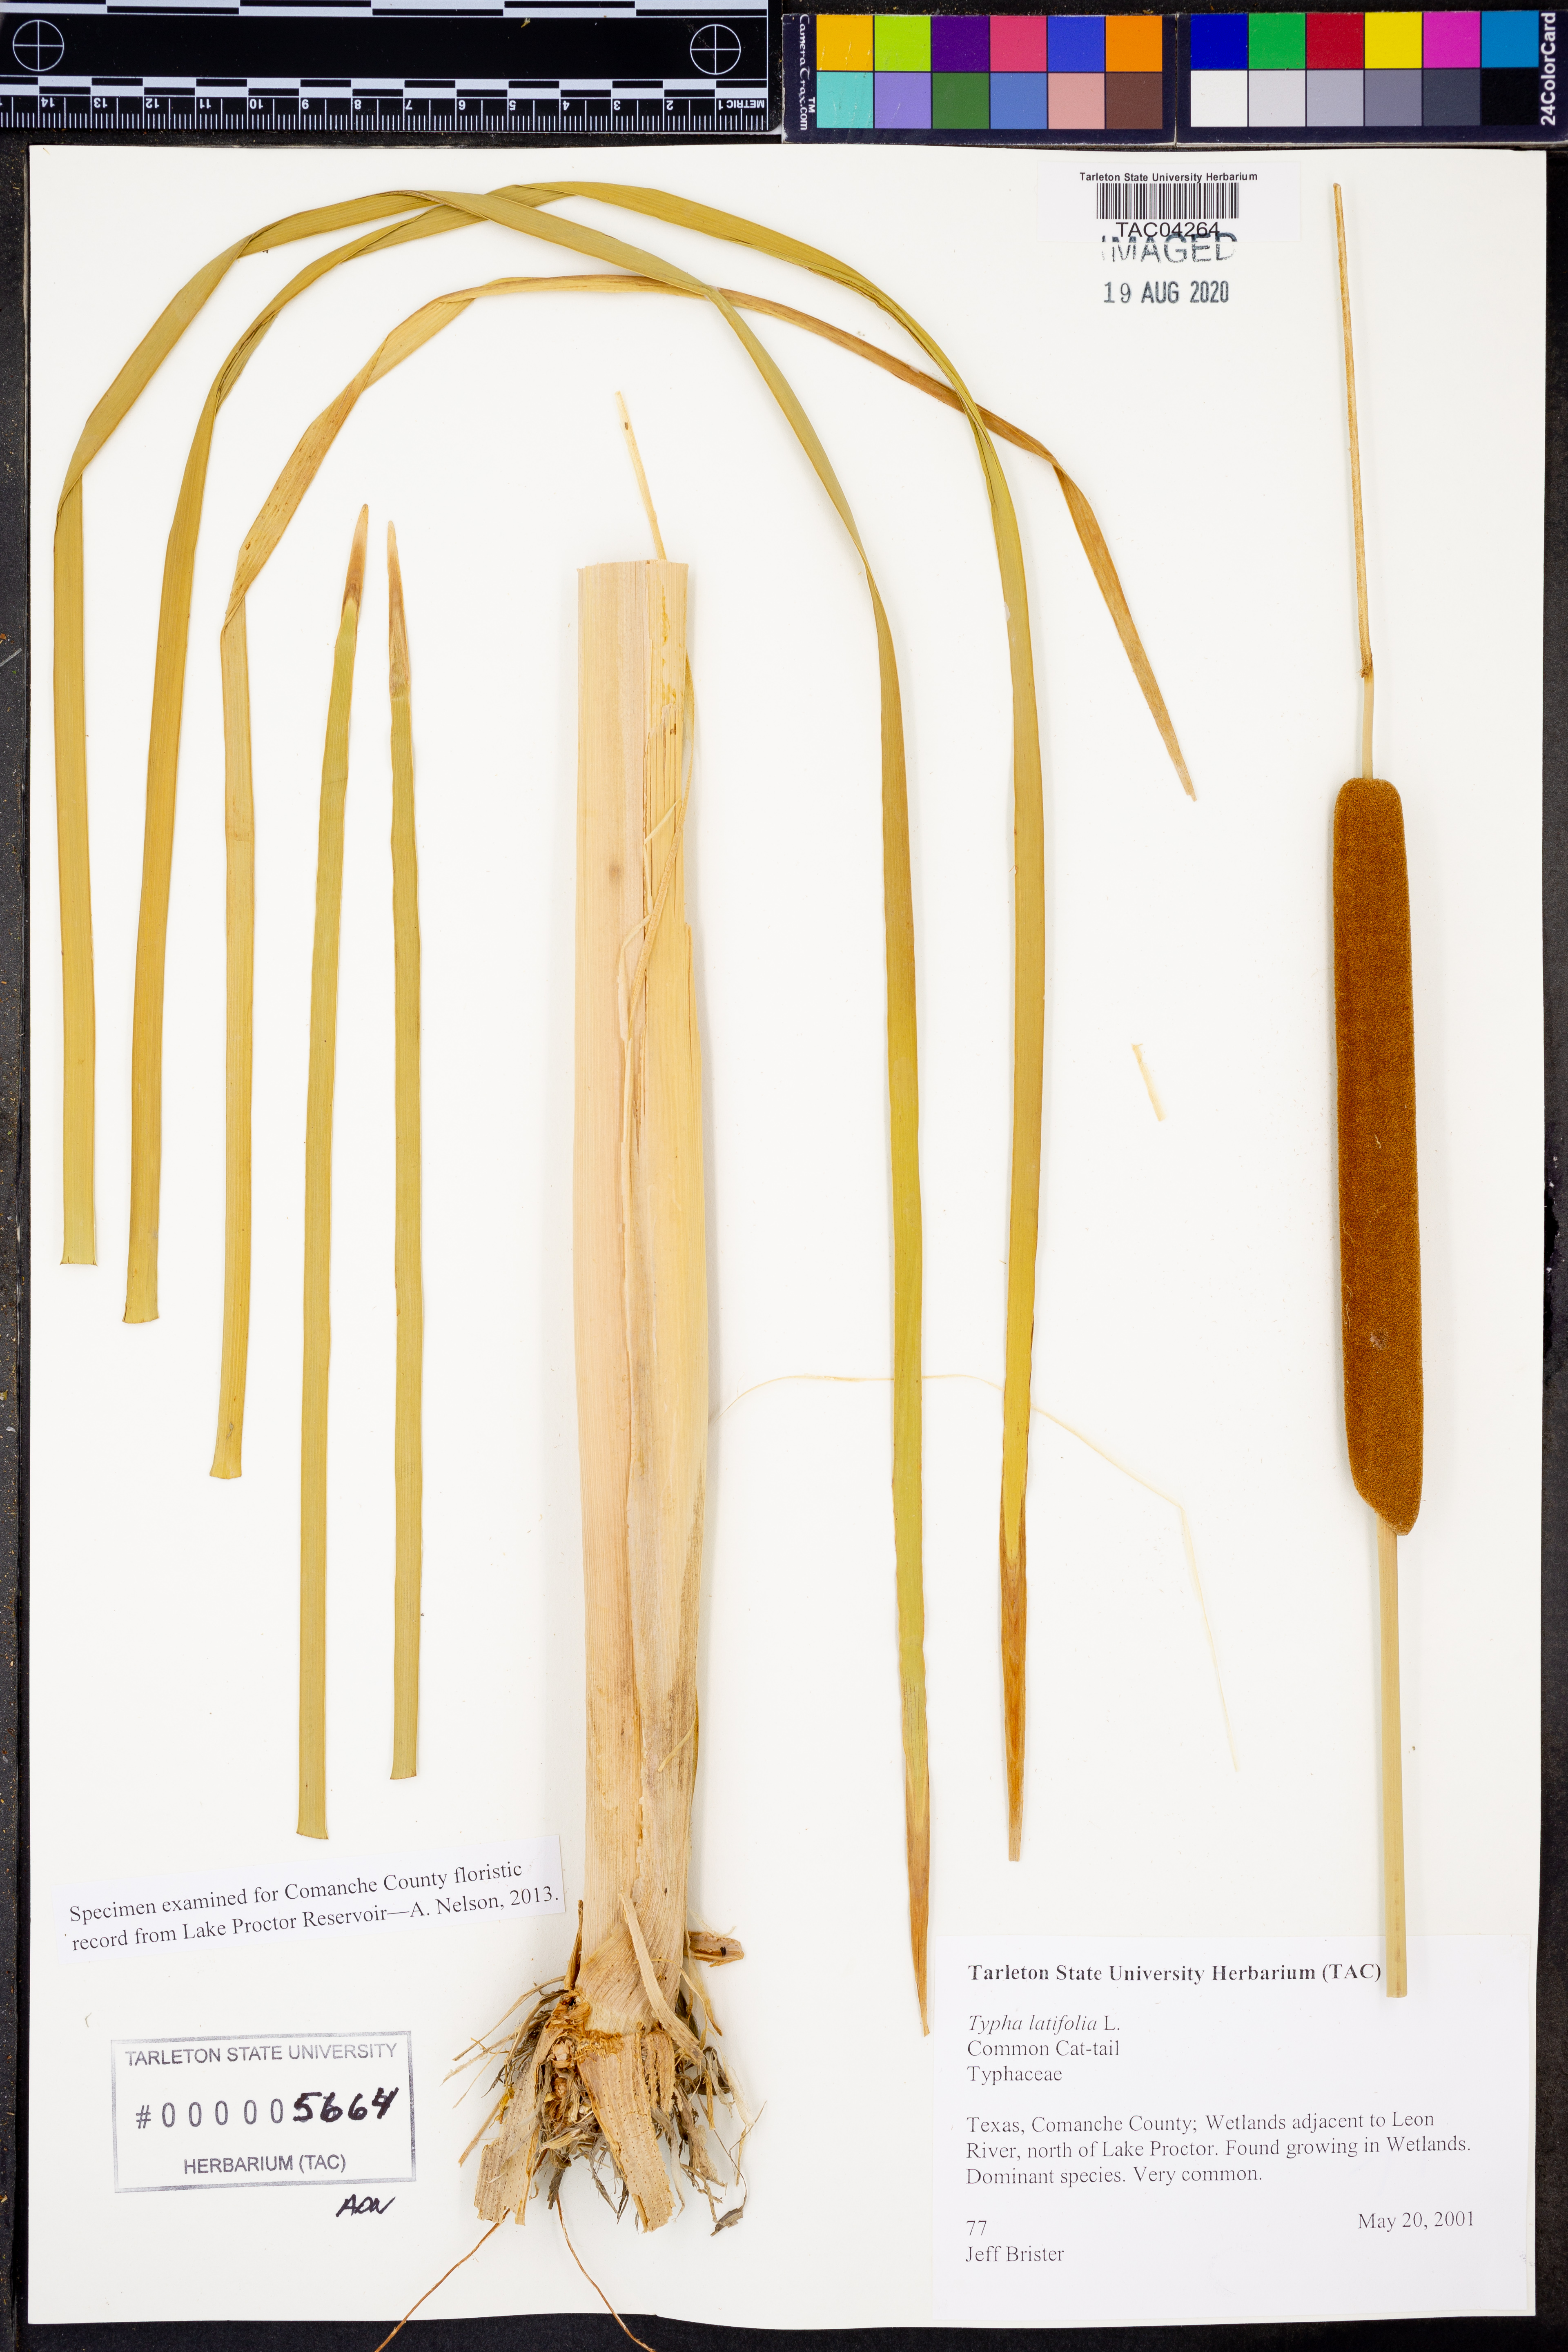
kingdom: Plantae
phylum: Tracheophyta
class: Liliopsida
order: Poales
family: Typhaceae
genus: Typha
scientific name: Typha latifolia
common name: Broadleaf cattail
